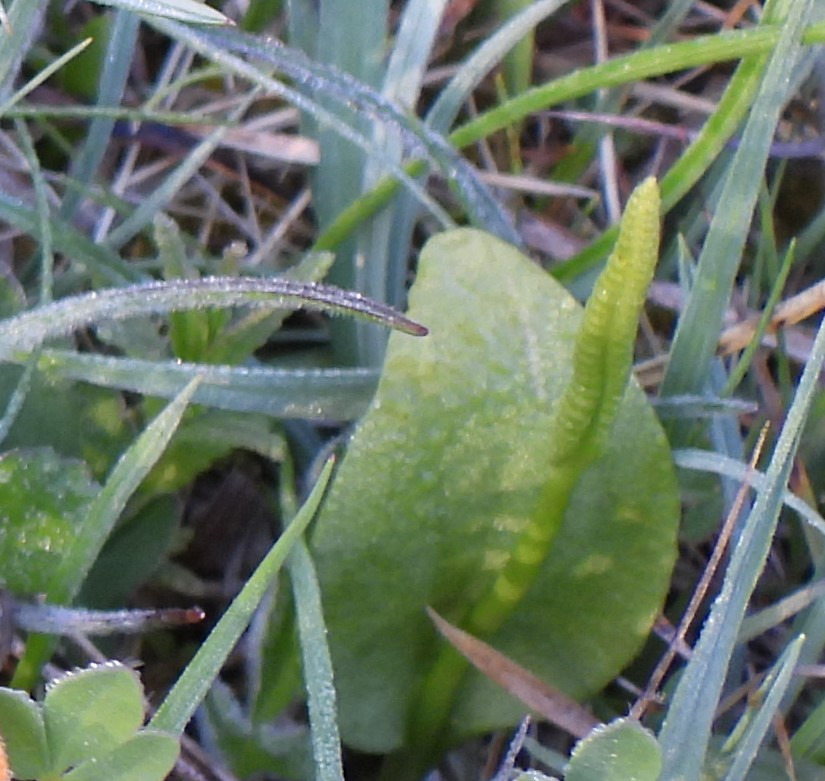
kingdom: Plantae
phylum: Tracheophyta
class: Polypodiopsida
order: Ophioglossales
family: Ophioglossaceae
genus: Ophioglossum
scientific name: Ophioglossum vulgatum
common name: Slangetunge
